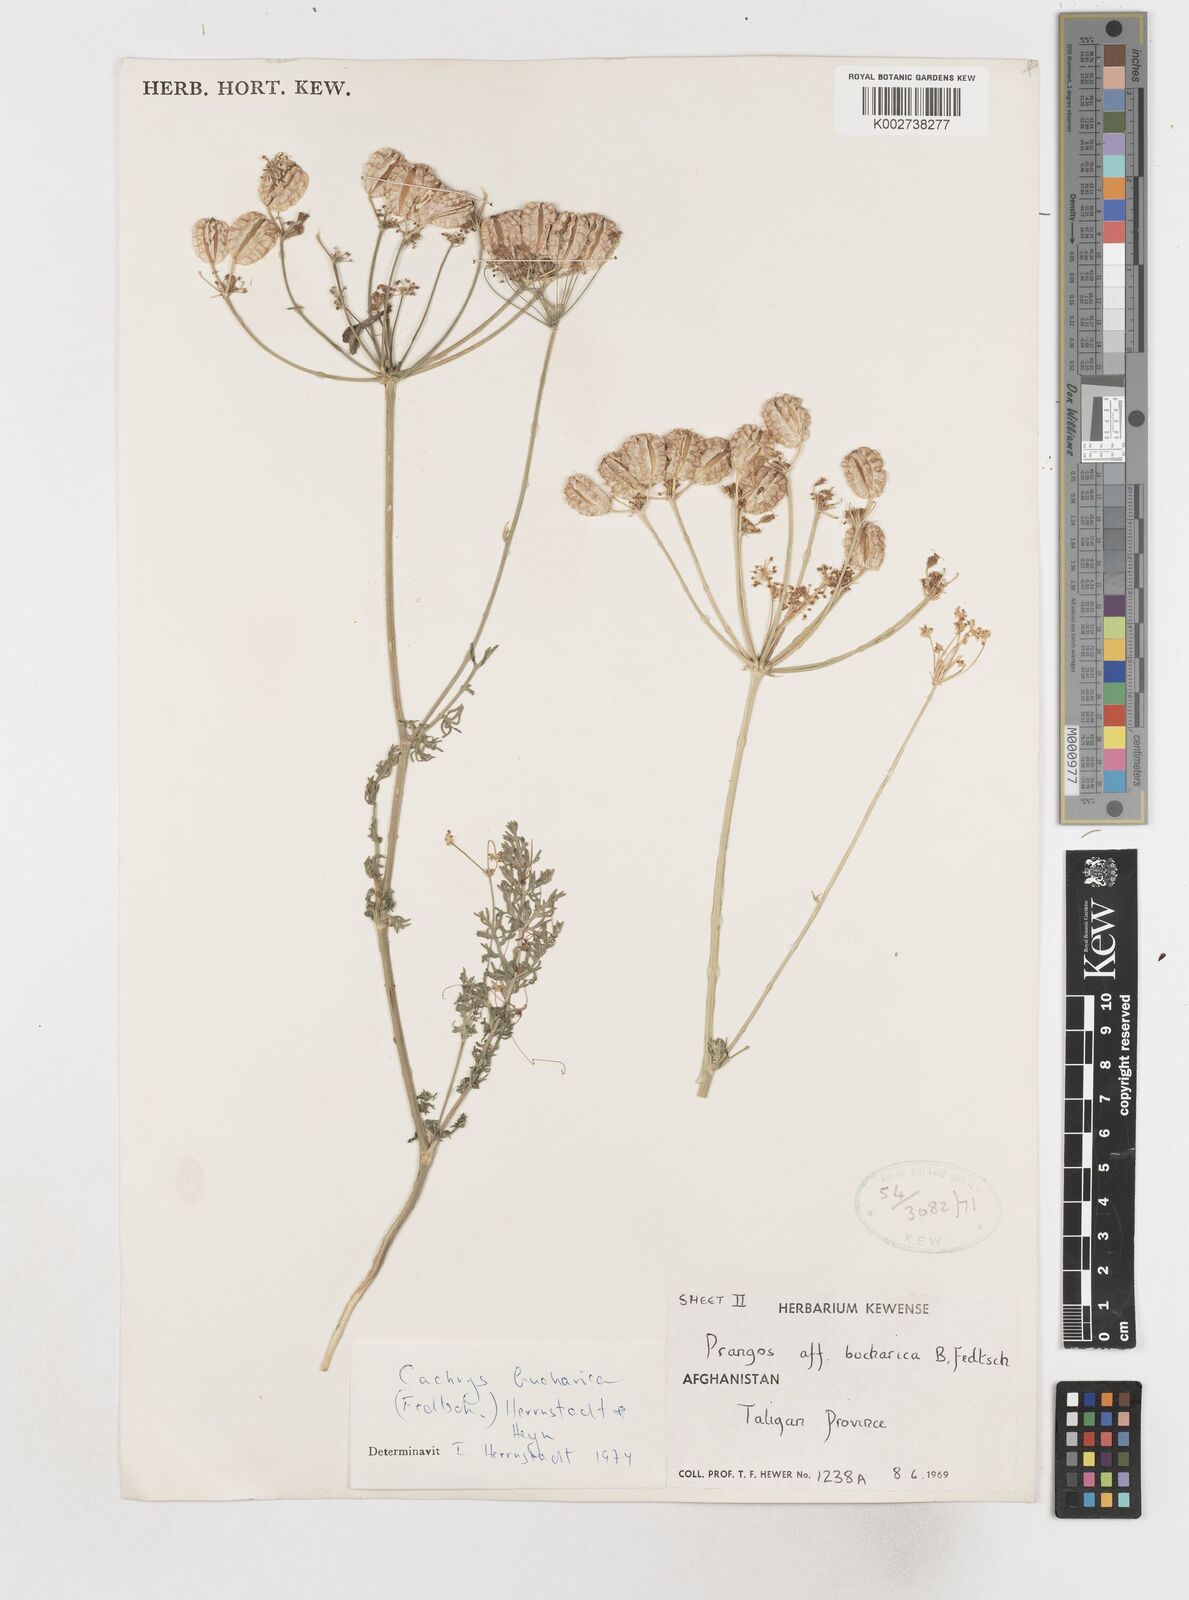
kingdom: Plantae
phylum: Tracheophyta
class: Magnoliopsida
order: Apiales
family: Apiaceae
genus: Prangos
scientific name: Prangos bucharica
